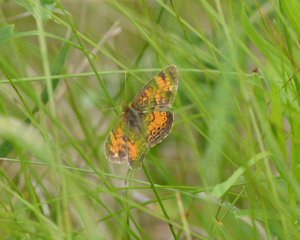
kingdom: Animalia
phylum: Arthropoda
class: Insecta
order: Lepidoptera
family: Nymphalidae
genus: Phyciodes
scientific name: Phyciodes tharos
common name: Northern Crescent
